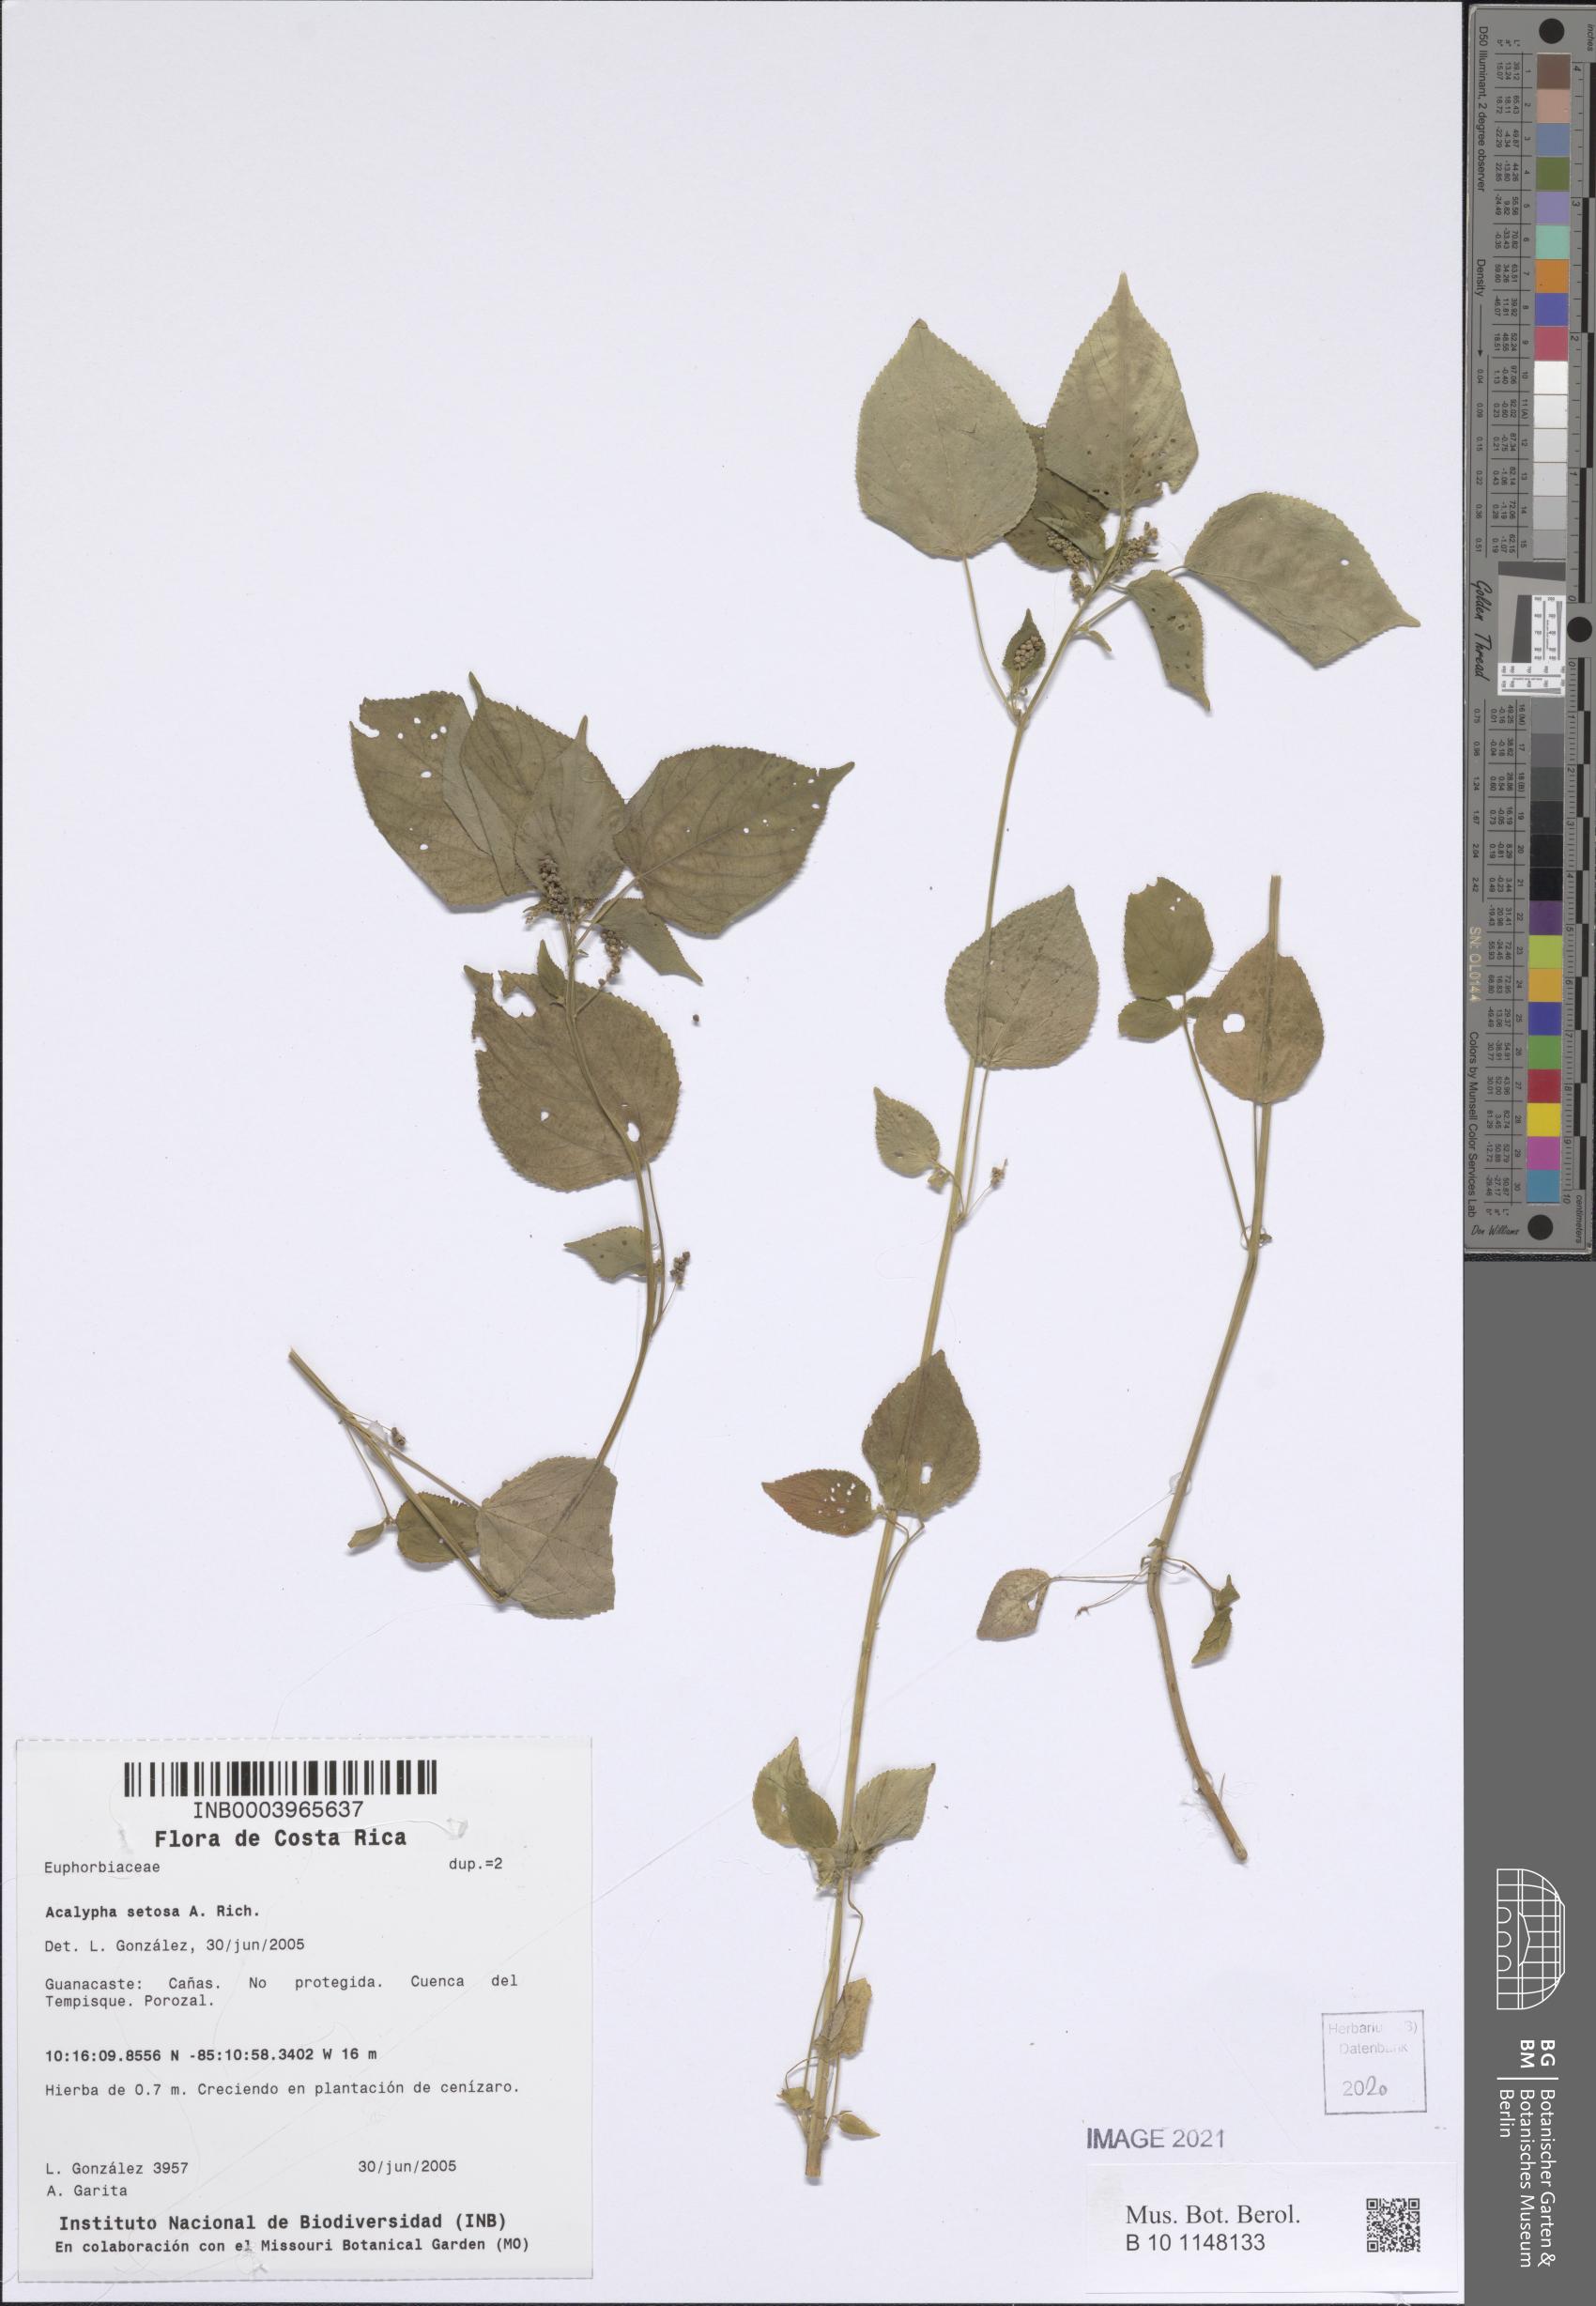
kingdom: Plantae
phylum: Tracheophyta
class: Magnoliopsida
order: Malpighiales
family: Euphorbiaceae
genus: Acalypha
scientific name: Acalypha setosa
